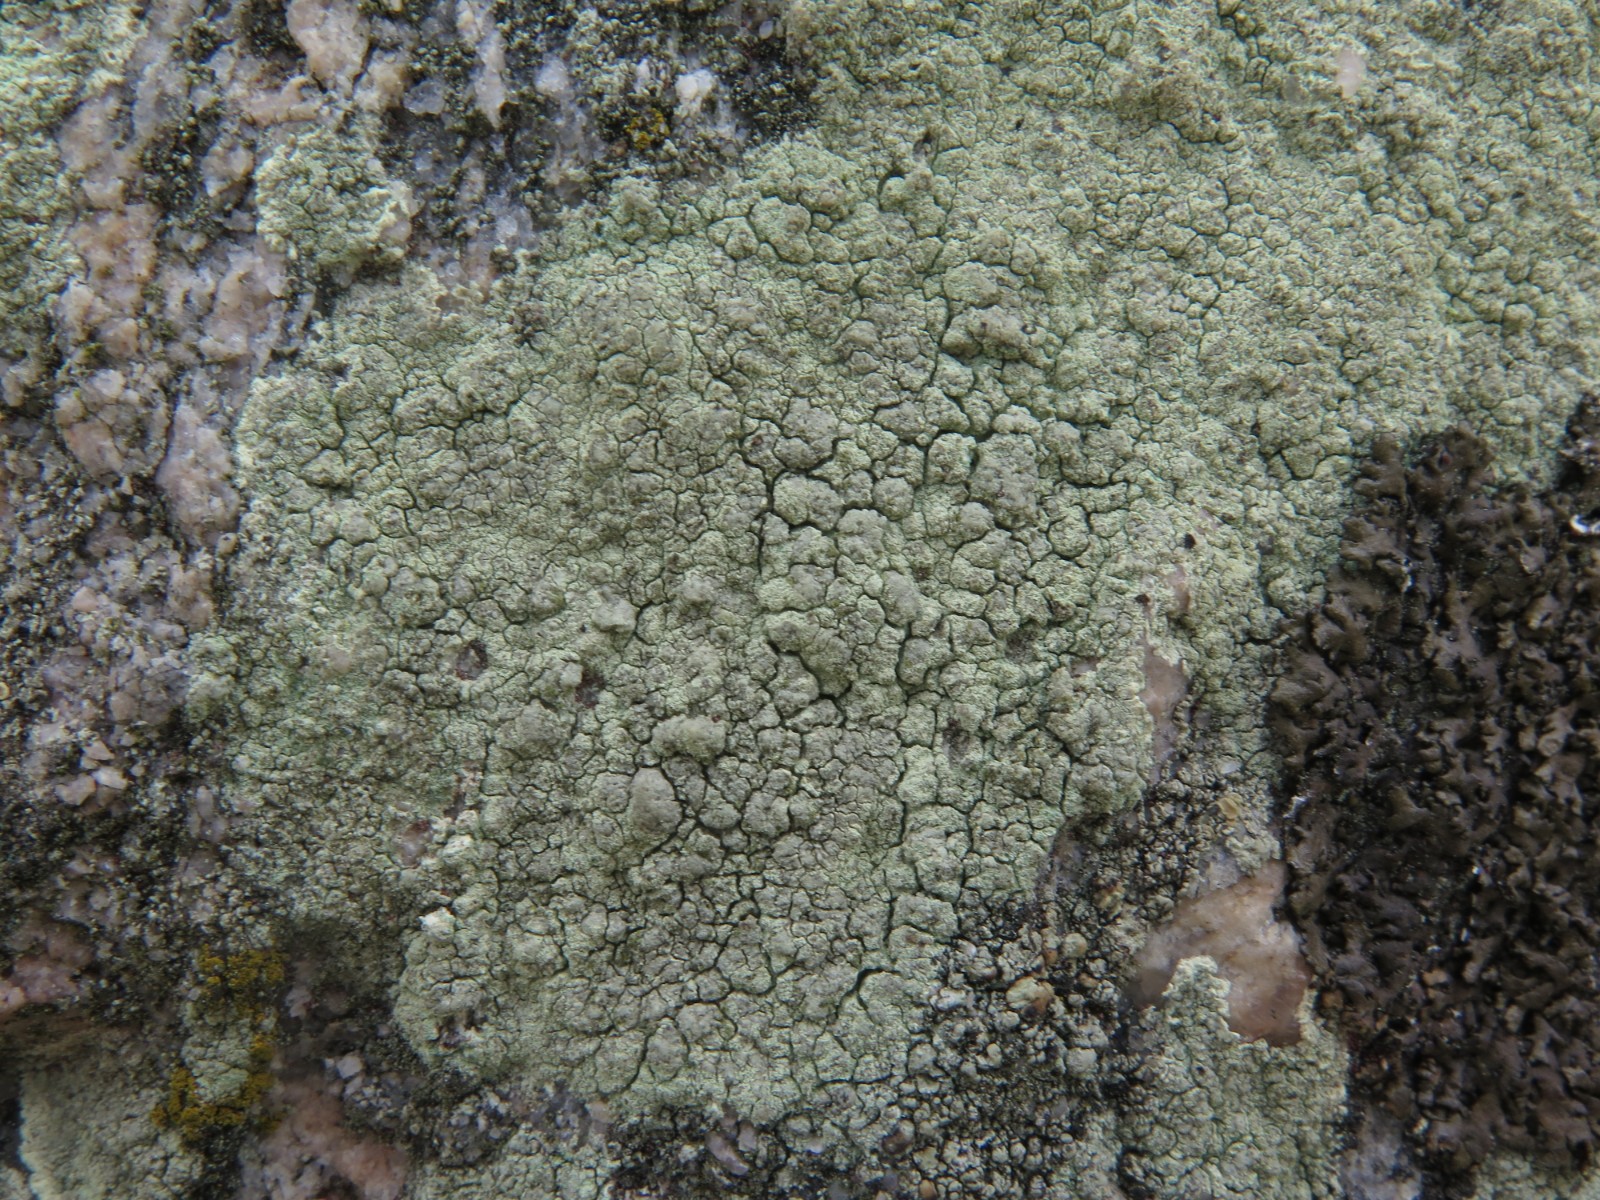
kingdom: Fungi
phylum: Ascomycota
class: Lecanoromycetes
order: Lecanorales
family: Lecanoraceae
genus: Glaucomaria
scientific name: Glaucomaria sulphurea
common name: svovlgul kantskivelav
